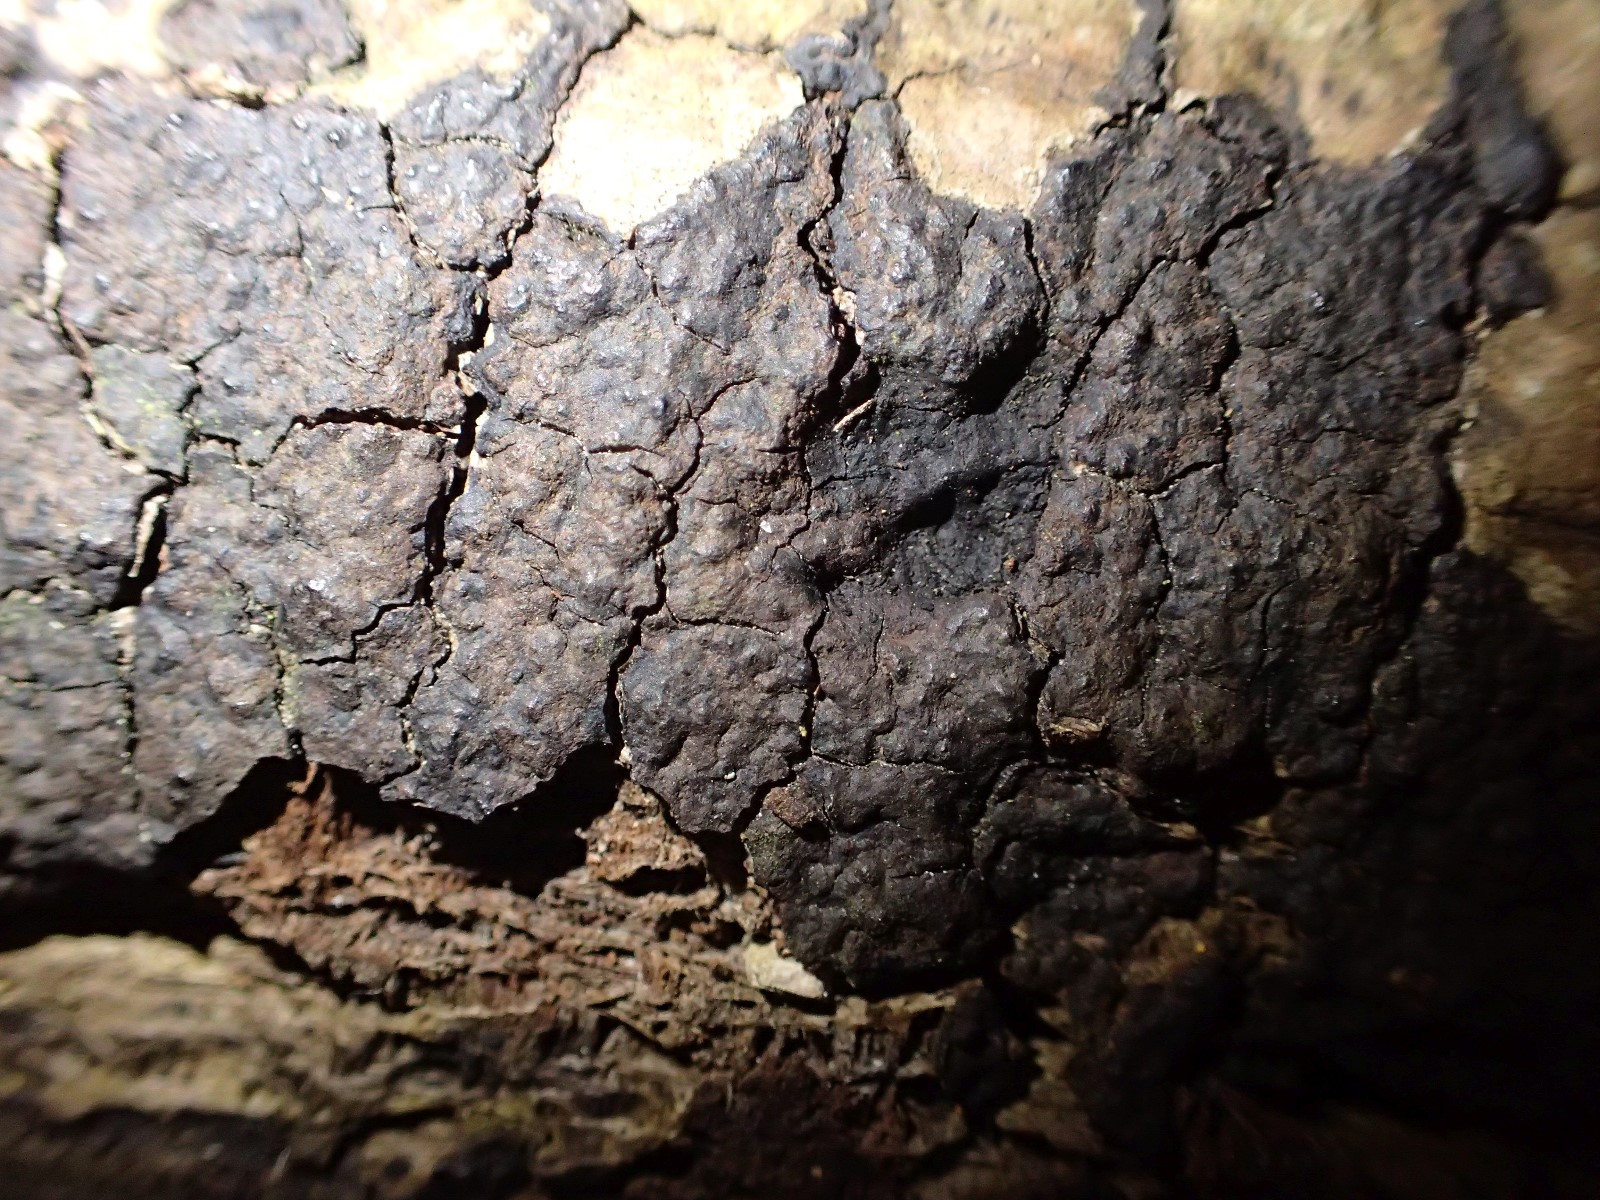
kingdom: Fungi
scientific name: Fungi
